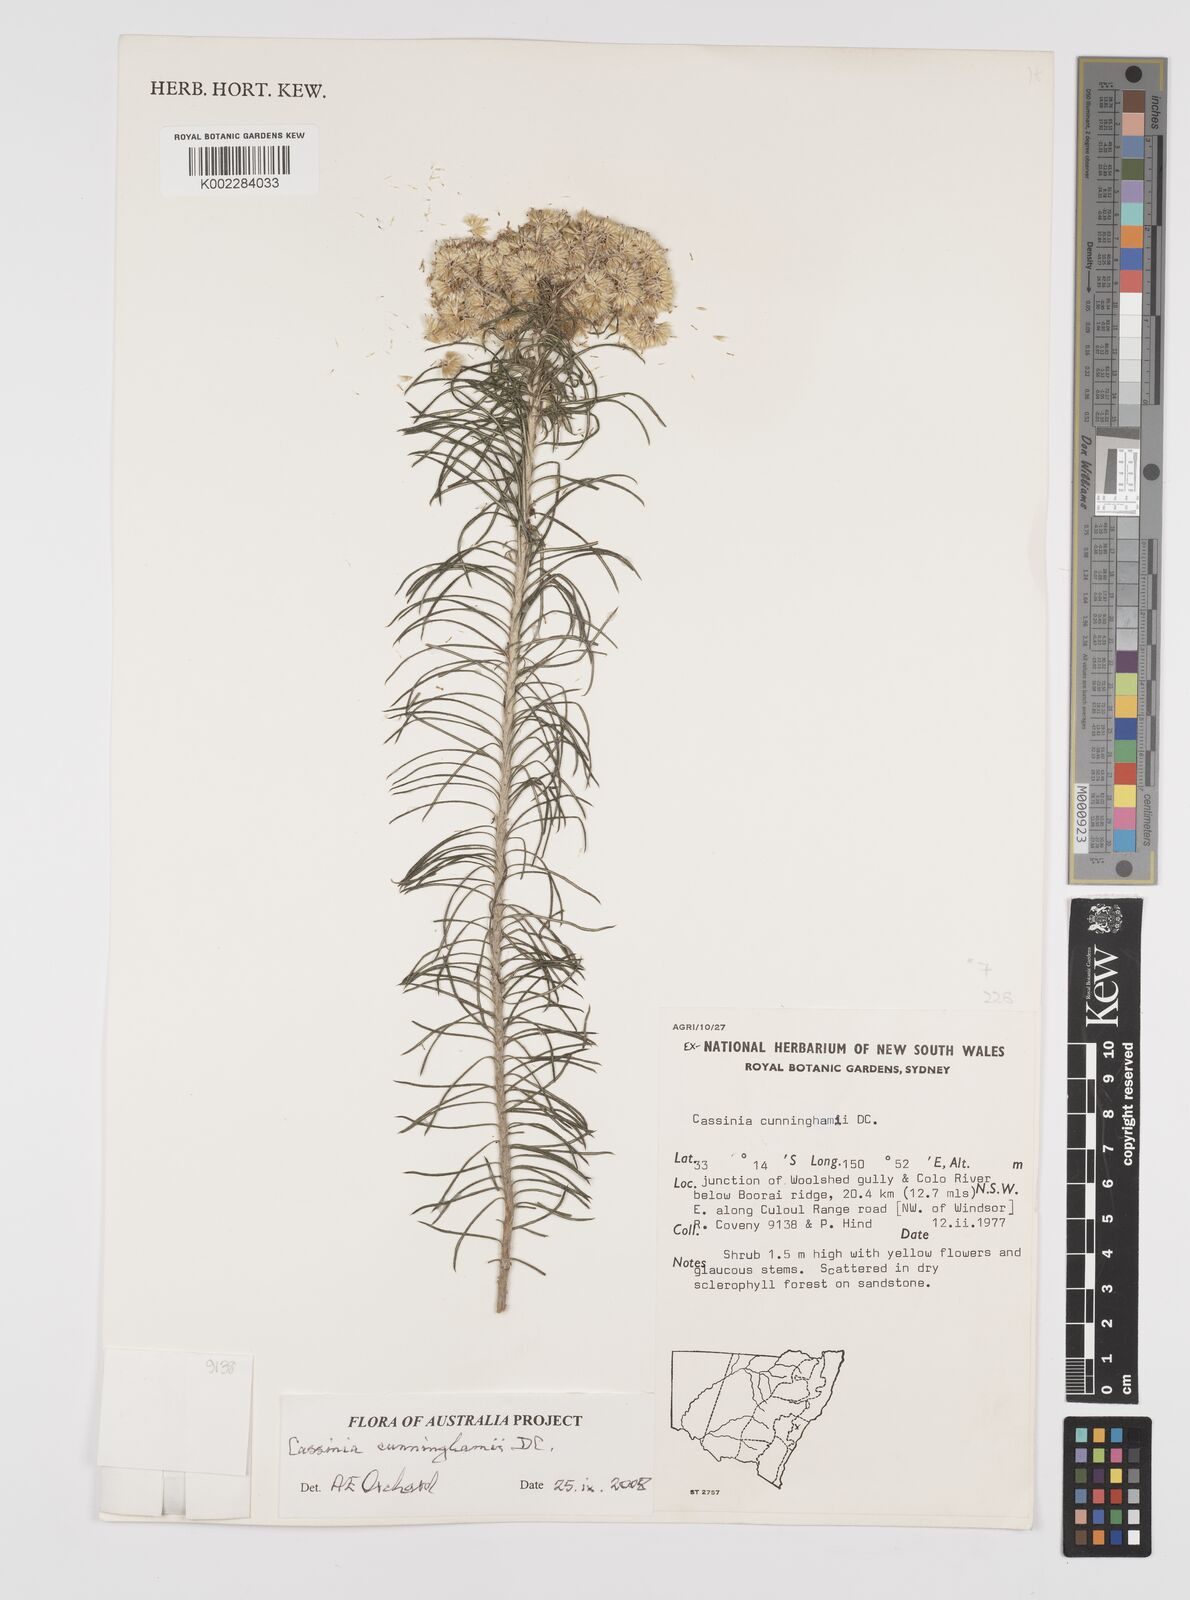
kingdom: Plantae
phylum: Tracheophyta
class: Magnoliopsida
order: Asterales
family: Asteraceae
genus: Cassinia
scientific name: Cassinia cunninghamii
